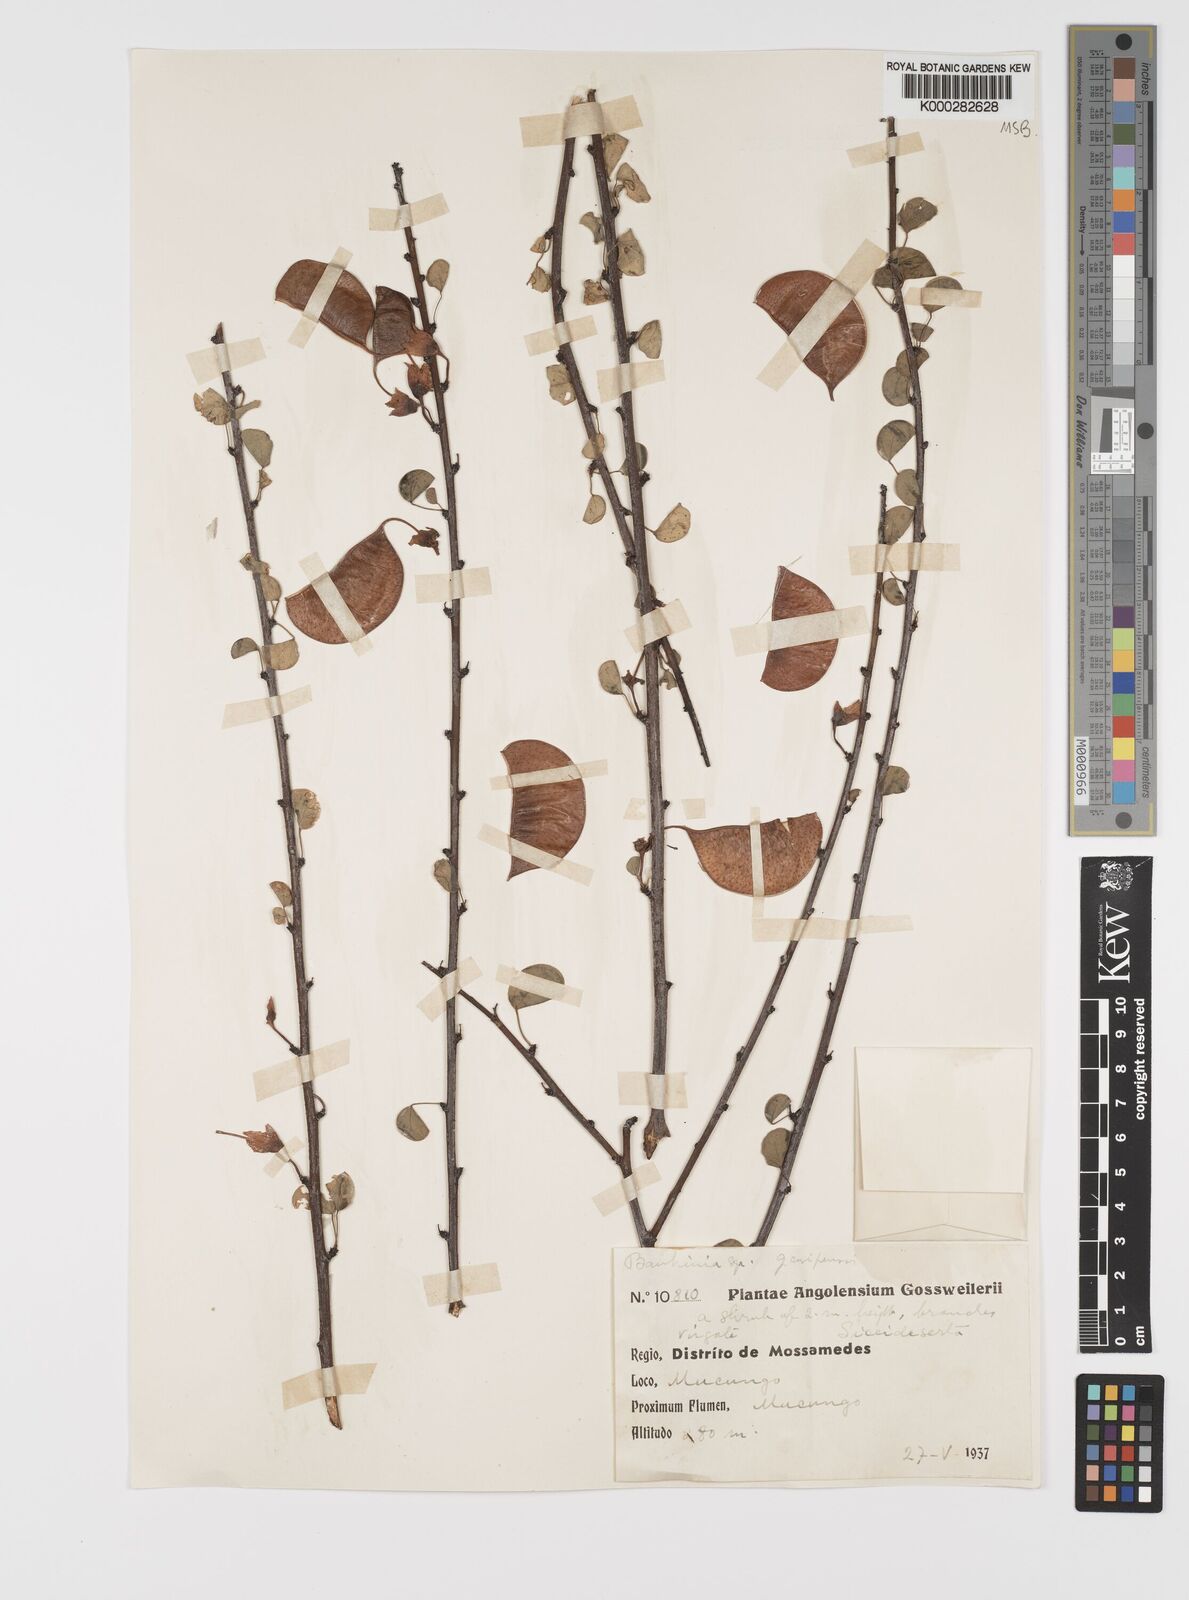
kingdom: Plantae
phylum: Tracheophyta
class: Magnoliopsida
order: Fabales
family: Fabaceae
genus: Adenolobus
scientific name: Adenolobus garipensis
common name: Butterfly-leaf
